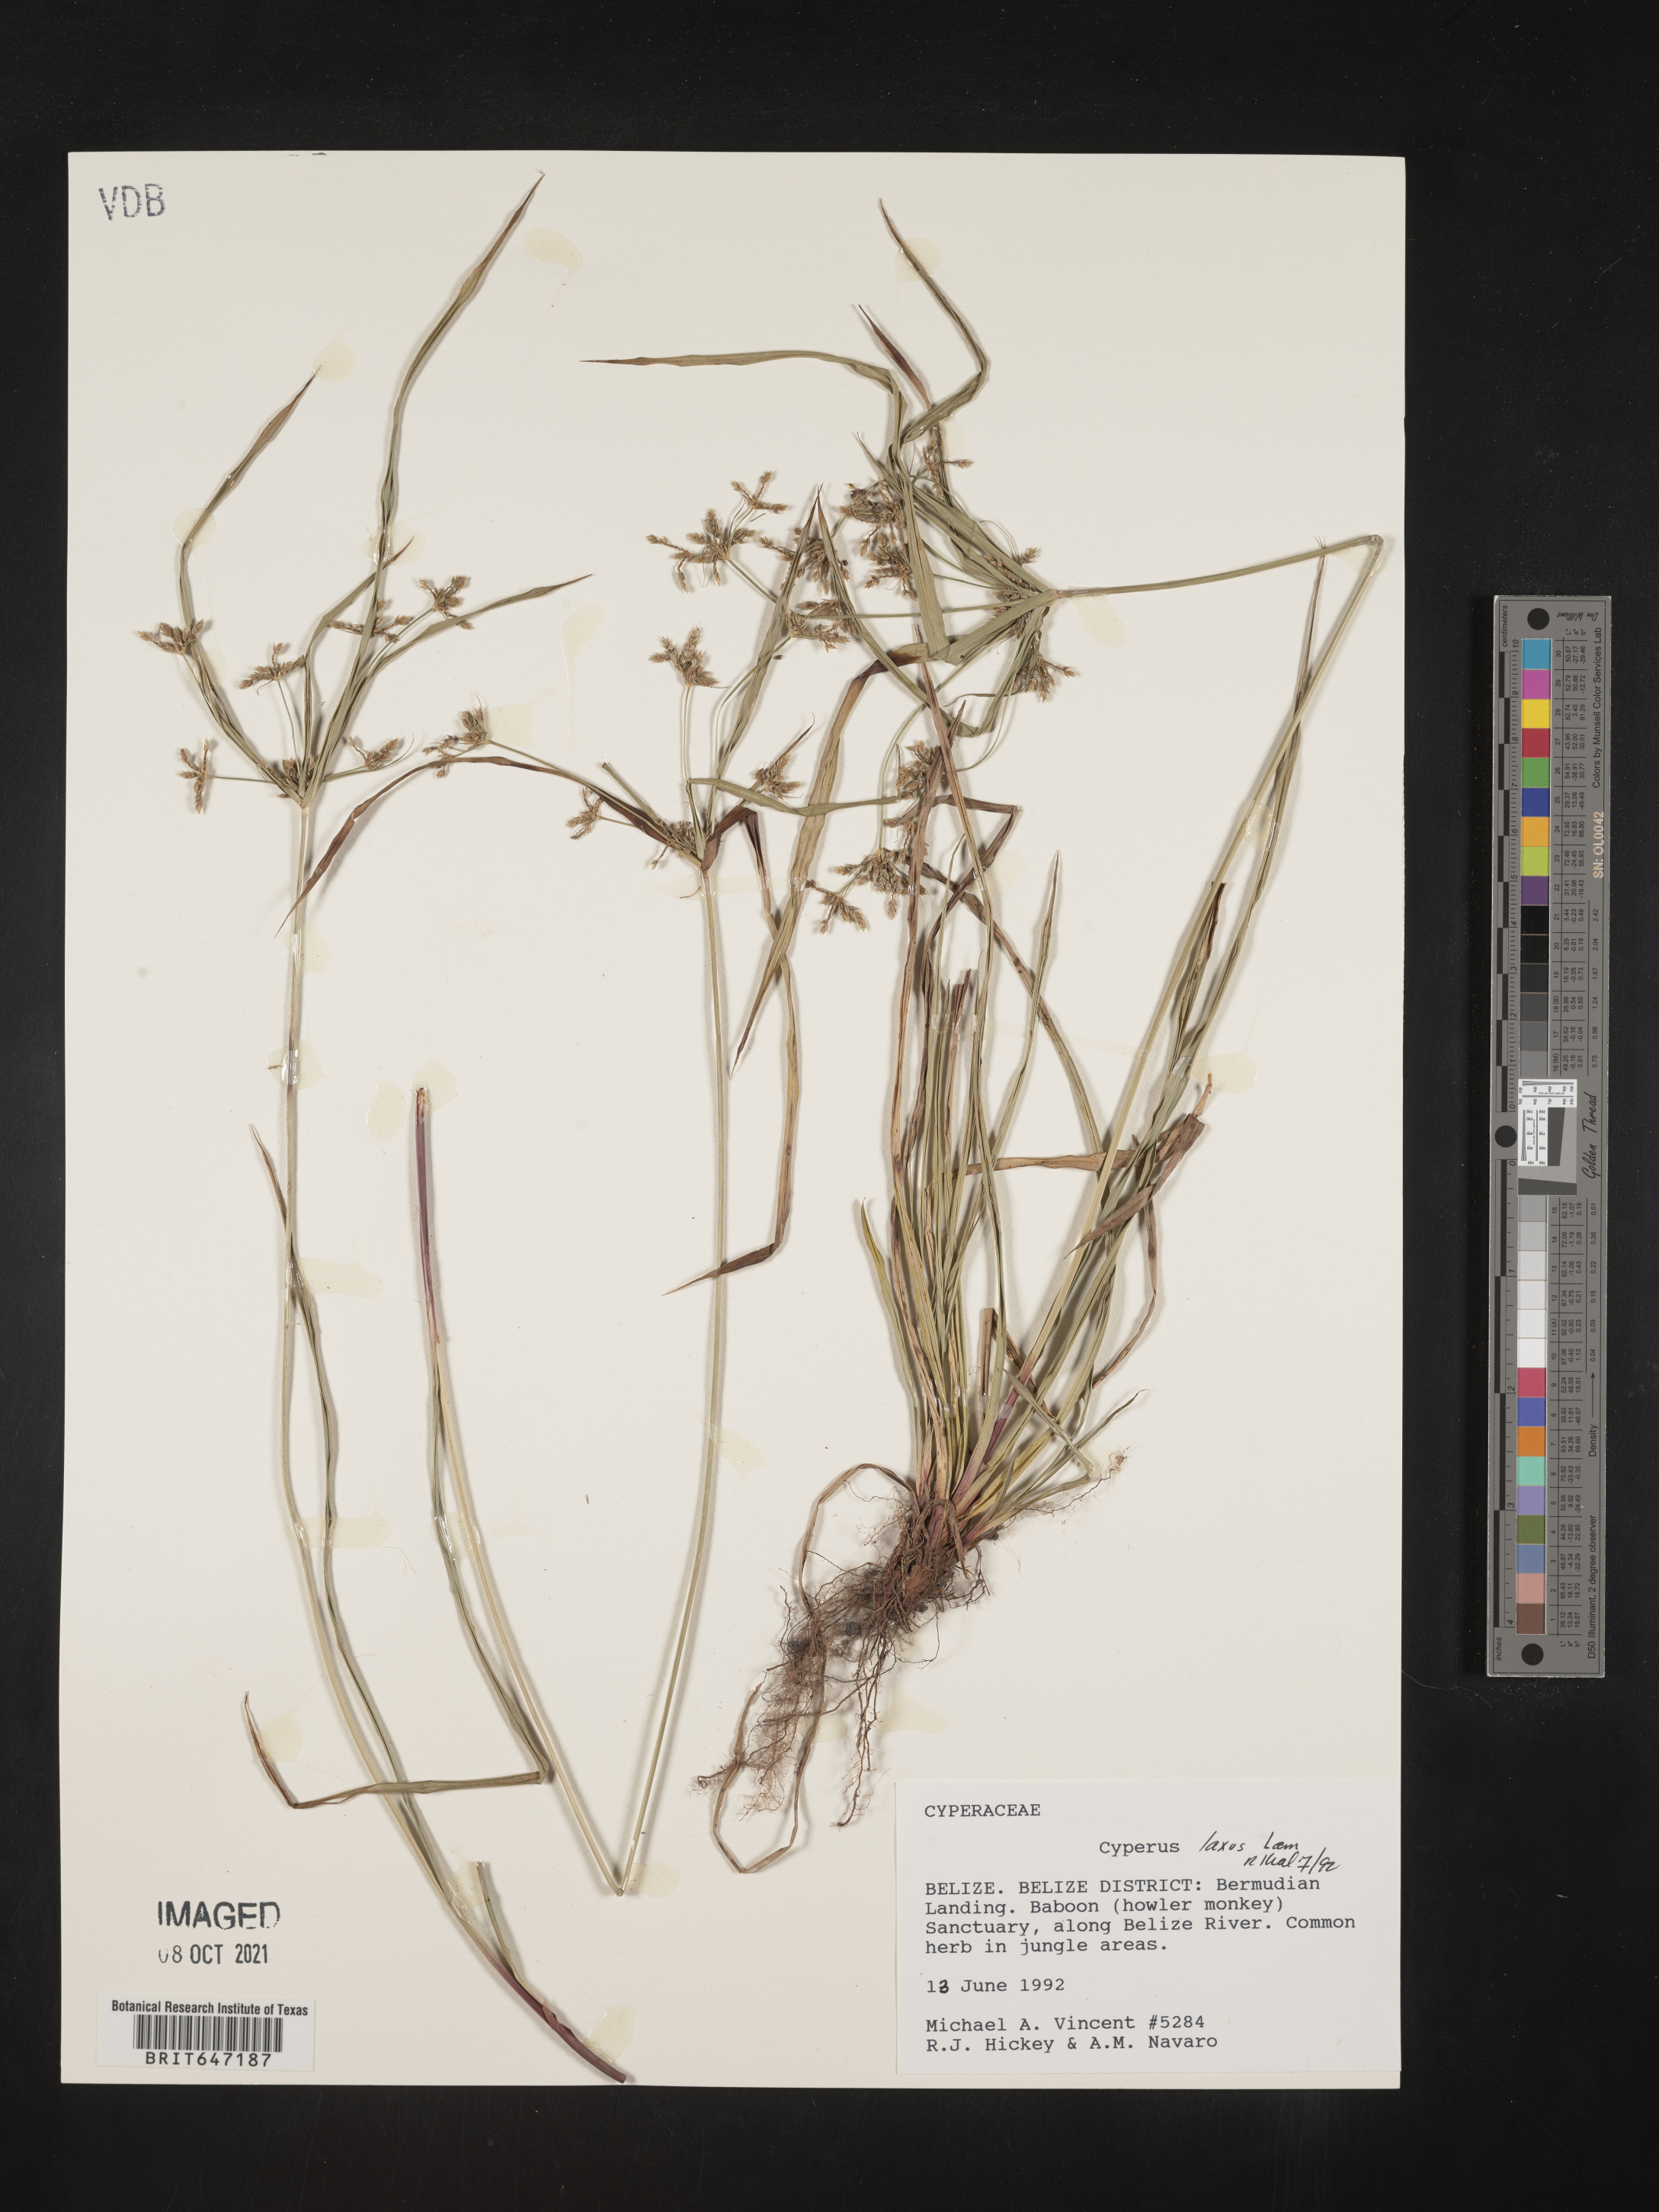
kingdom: Plantae
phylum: Tracheophyta
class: Liliopsida
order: Poales
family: Cyperaceae
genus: Cyperus
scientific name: Cyperus laxus
